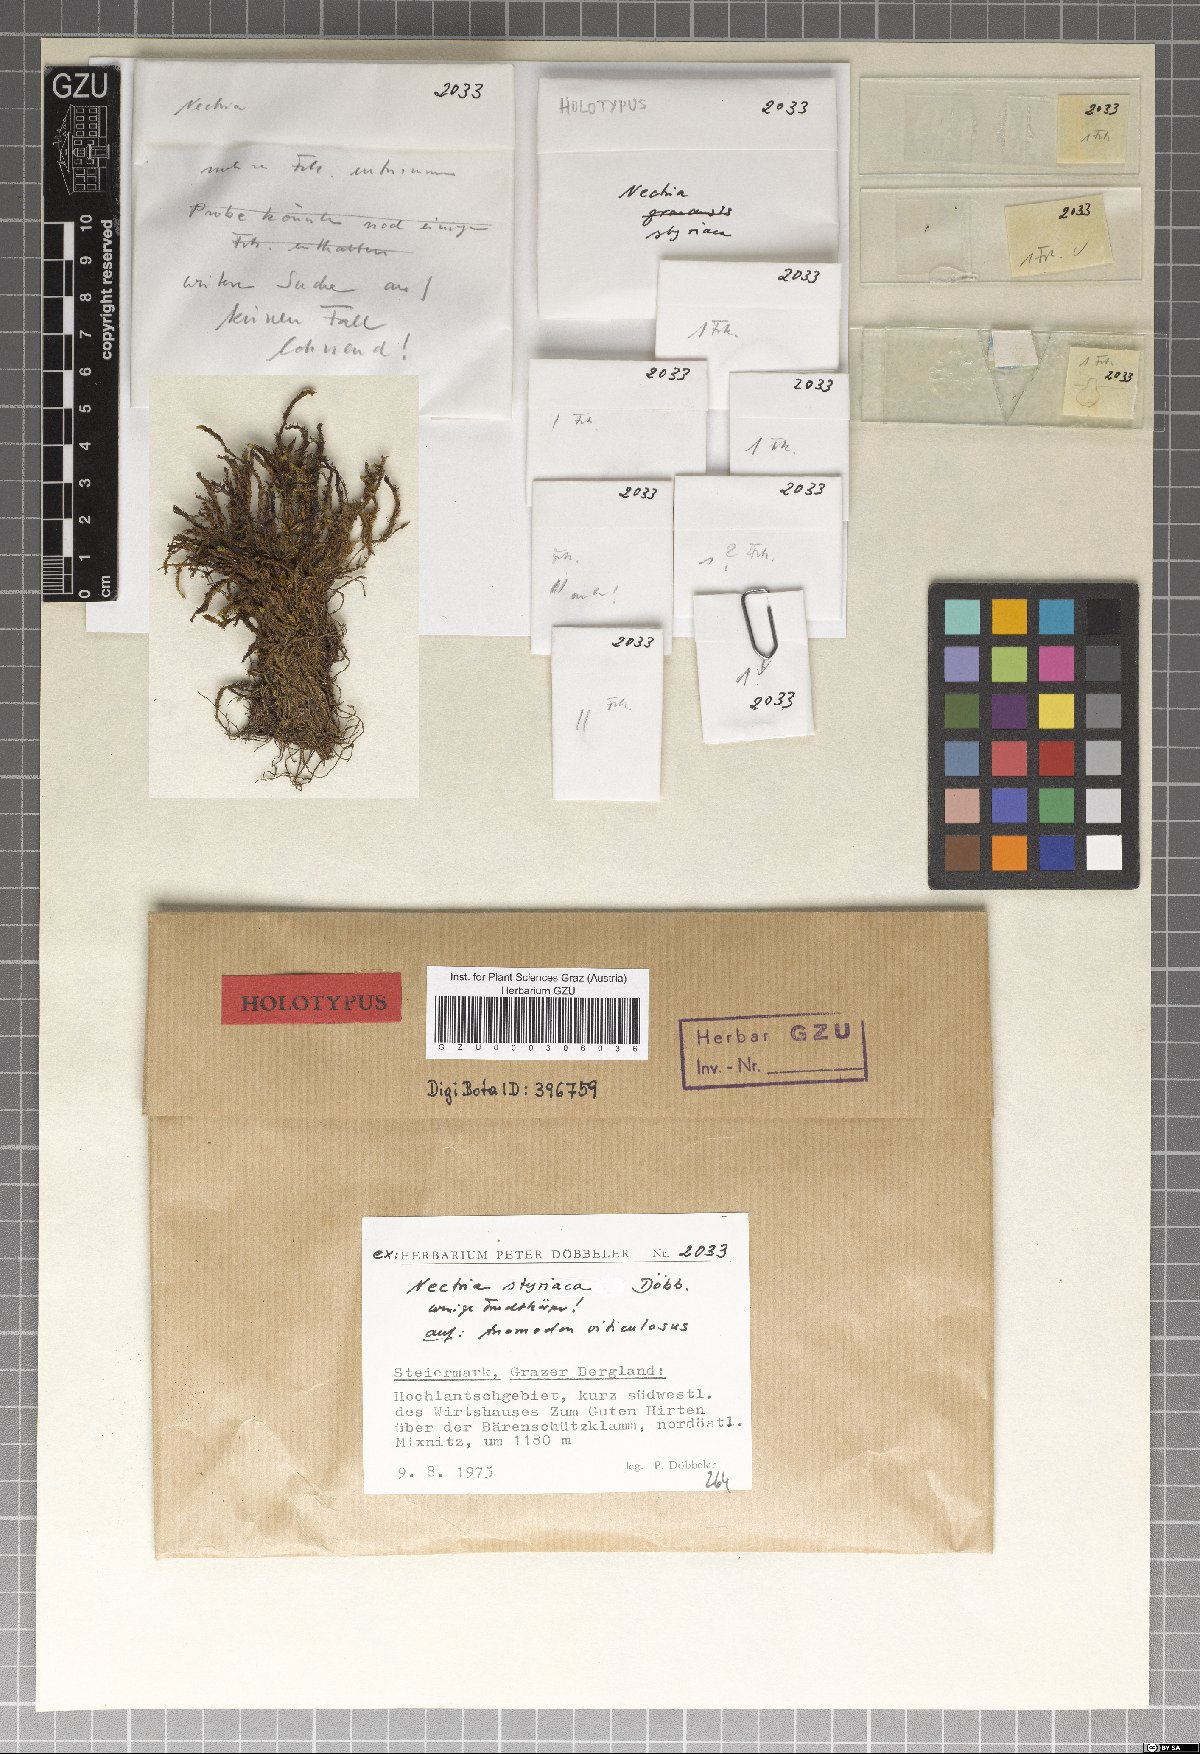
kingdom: Fungi
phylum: Ascomycota
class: Sordariomycetes
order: Hypocreales
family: Nectriaceae
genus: Nectria
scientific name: Nectria styriaca
